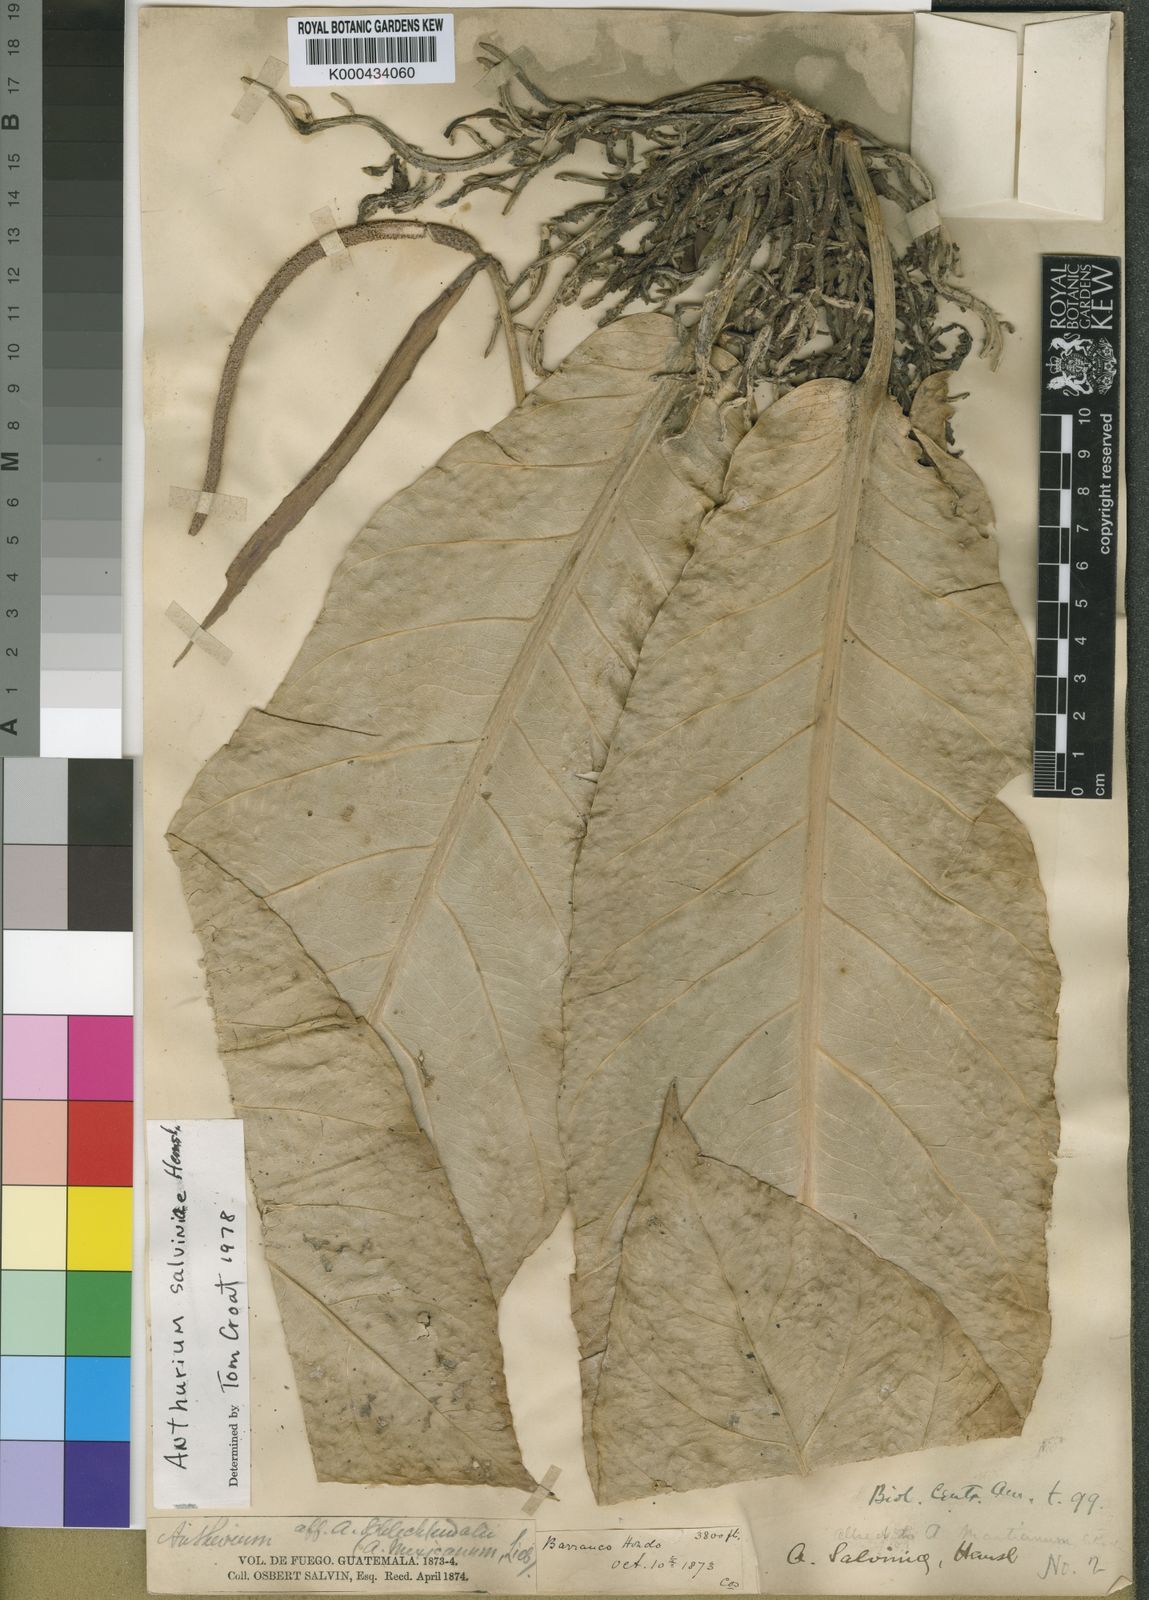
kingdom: Plantae
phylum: Tracheophyta
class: Liliopsida
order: Alismatales
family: Araceae
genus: Anthurium
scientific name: Anthurium salvinii
